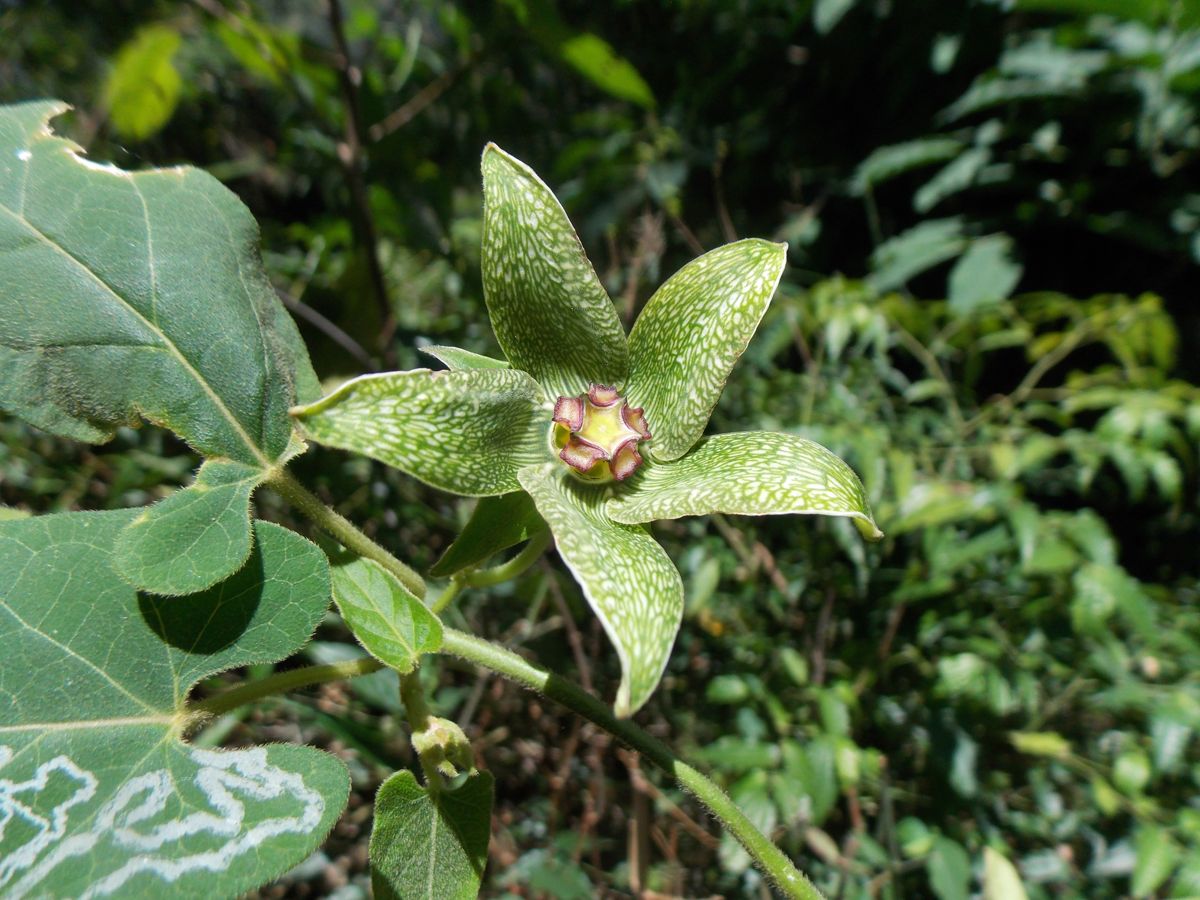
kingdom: Plantae
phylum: Tracheophyta
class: Magnoliopsida
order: Gentianales
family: Apocynaceae
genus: Gonolobus
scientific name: Gonolobus incerianus
